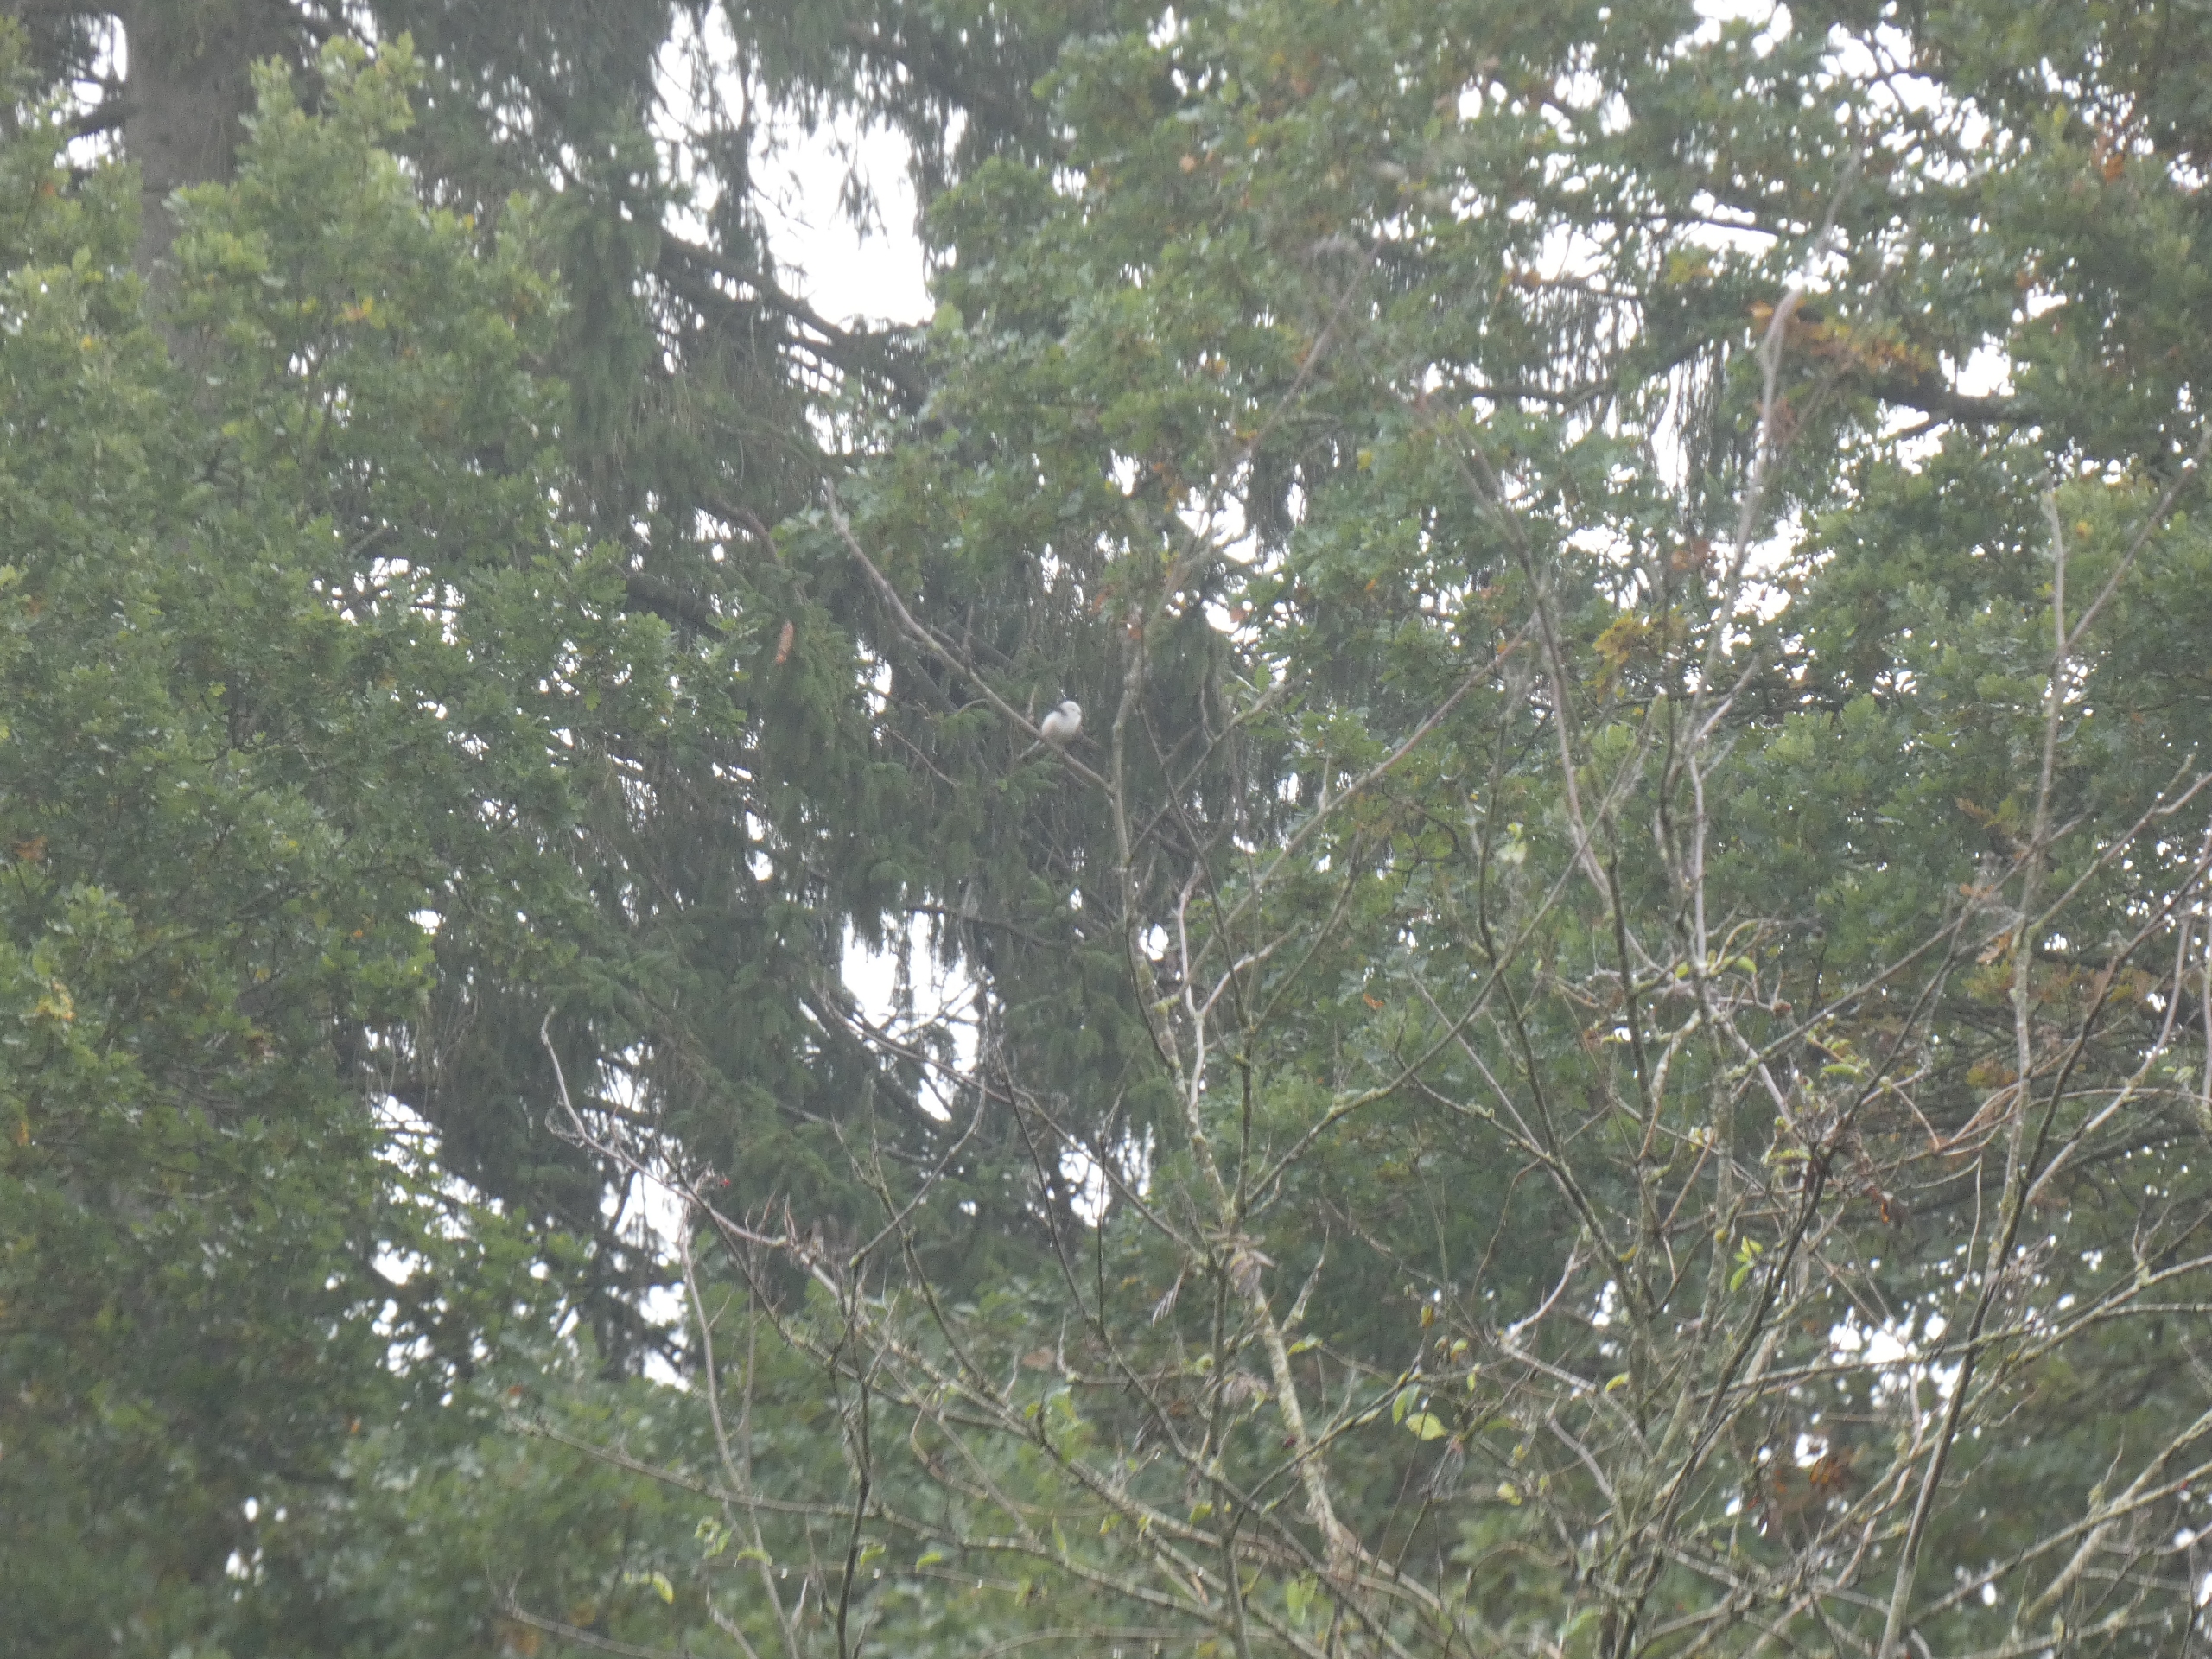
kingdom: Animalia
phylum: Chordata
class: Aves
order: Passeriformes
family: Aegithalidae
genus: Aegithalos
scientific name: Aegithalos caudatus
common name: Halemejse
